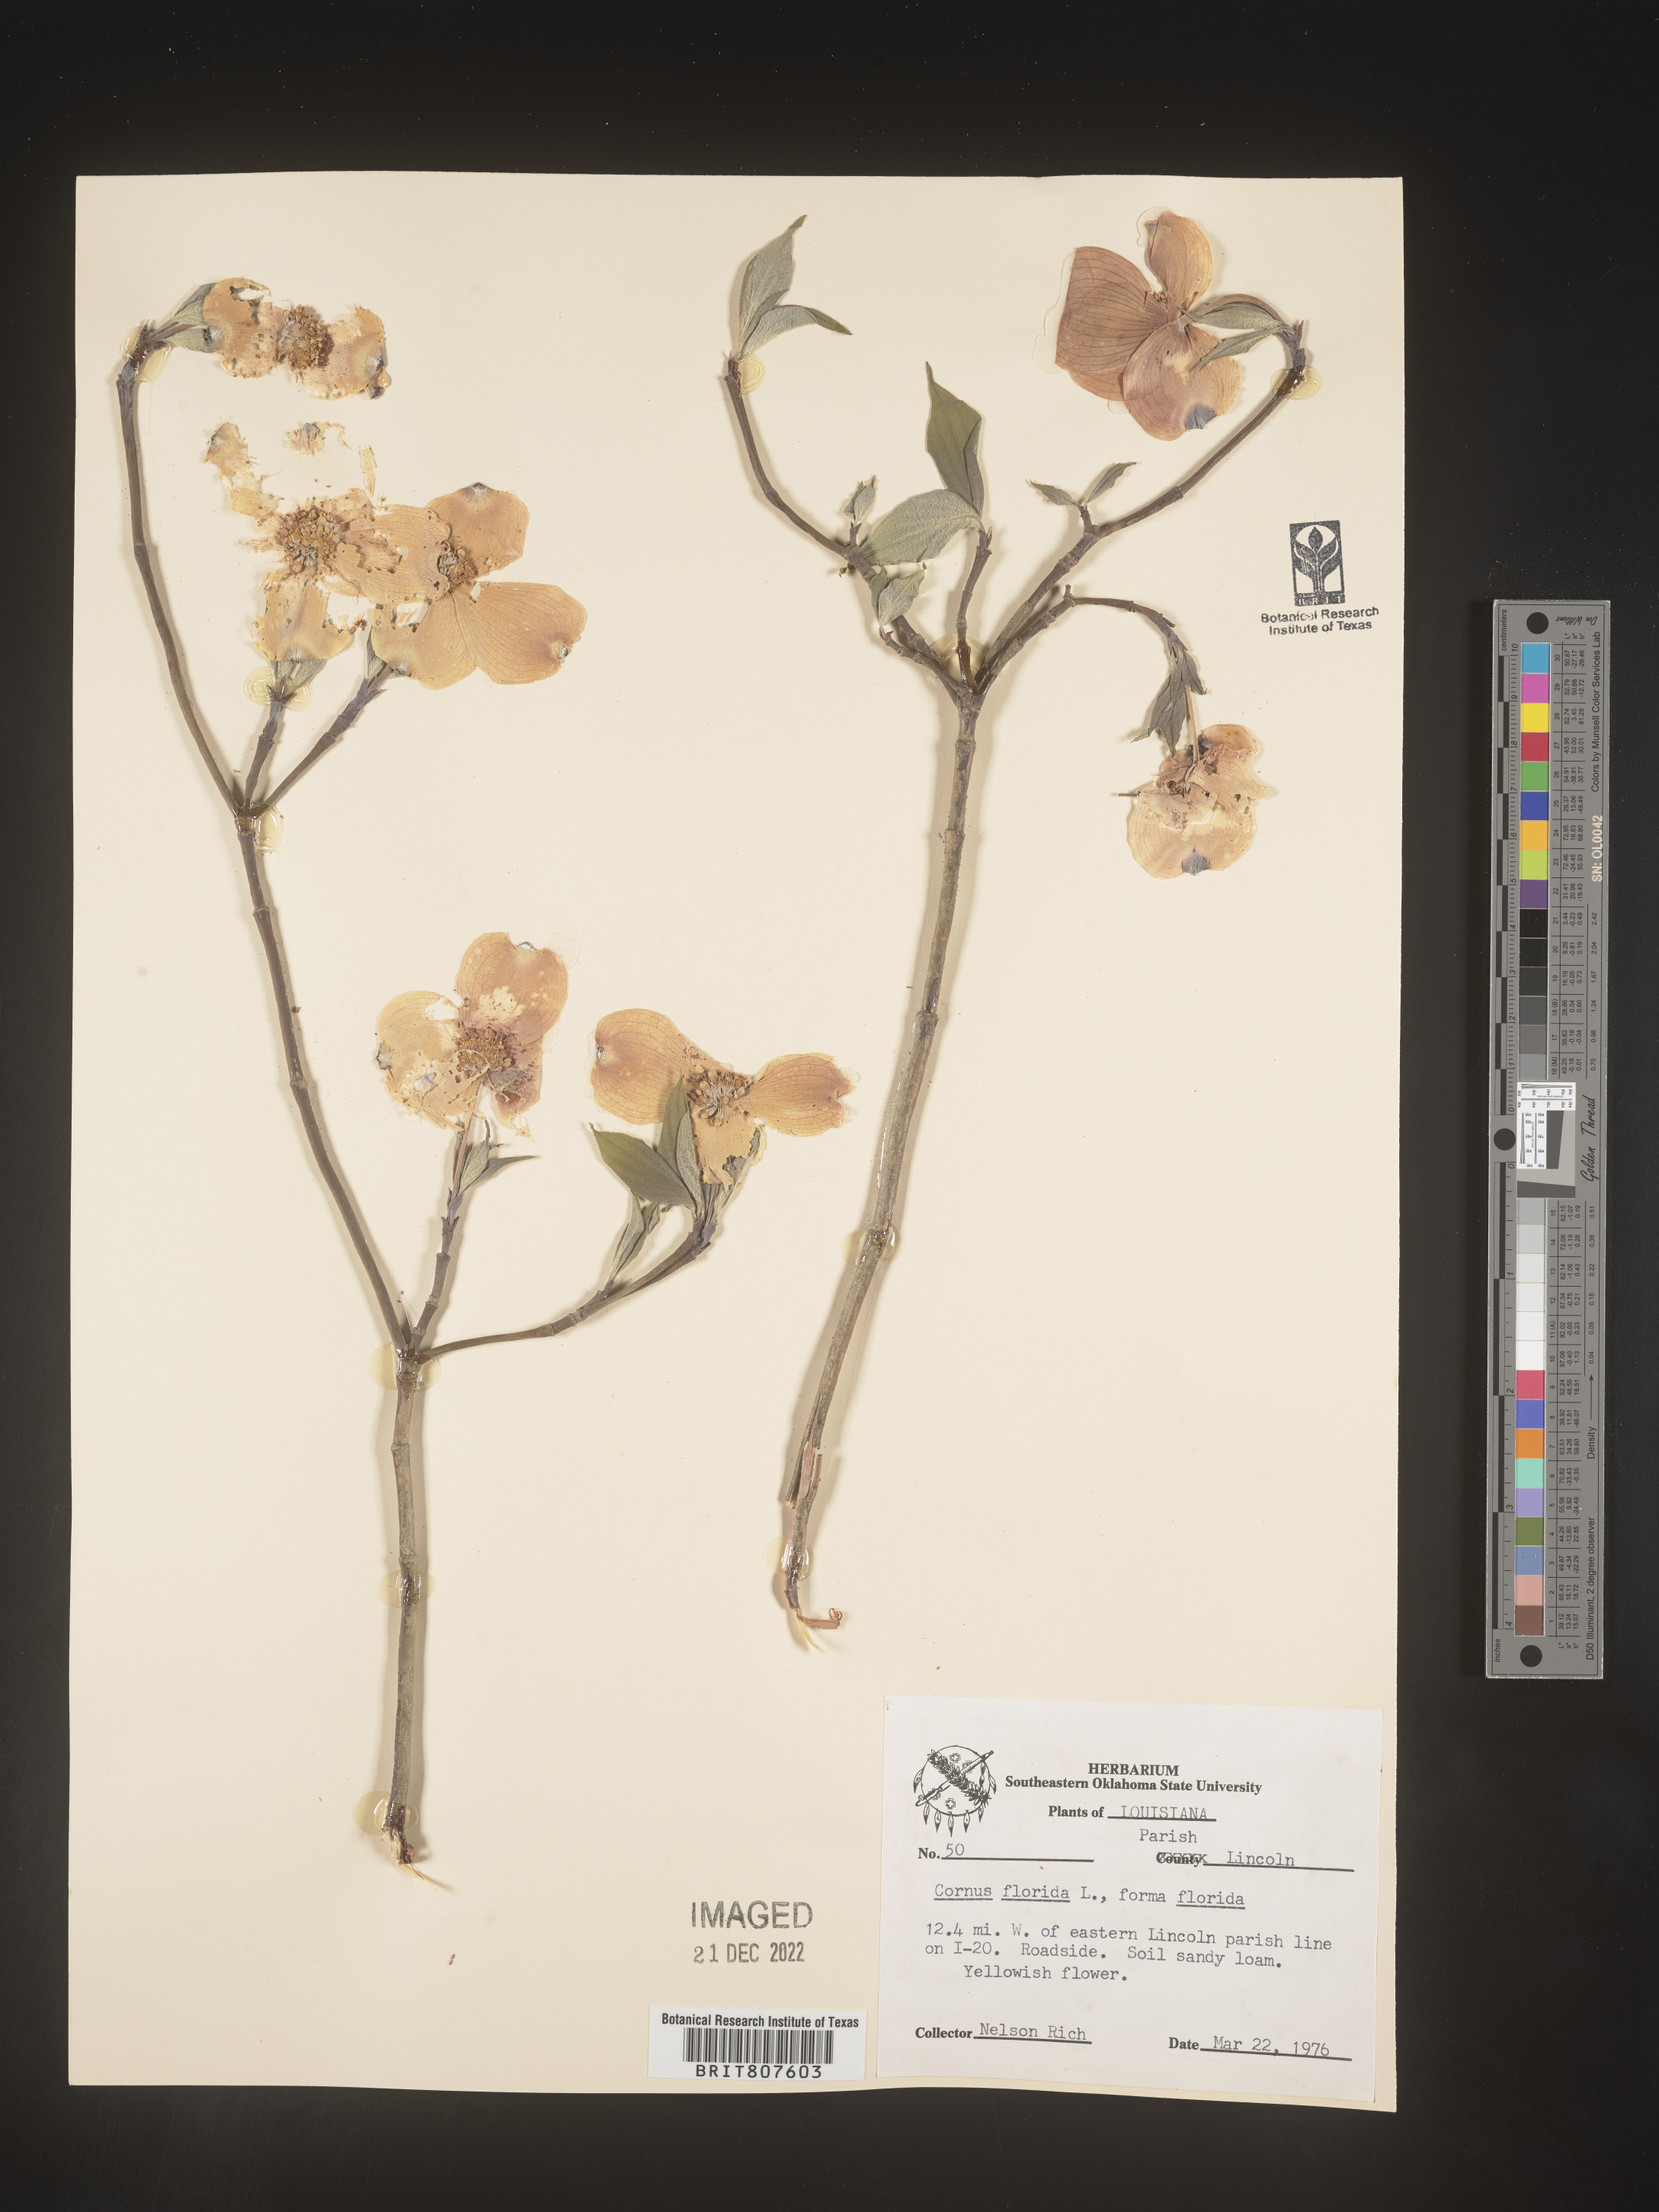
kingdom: Plantae
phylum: Tracheophyta
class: Magnoliopsida
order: Cornales
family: Cornaceae
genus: Cornus
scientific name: Cornus florida
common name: Flowering dogwood
